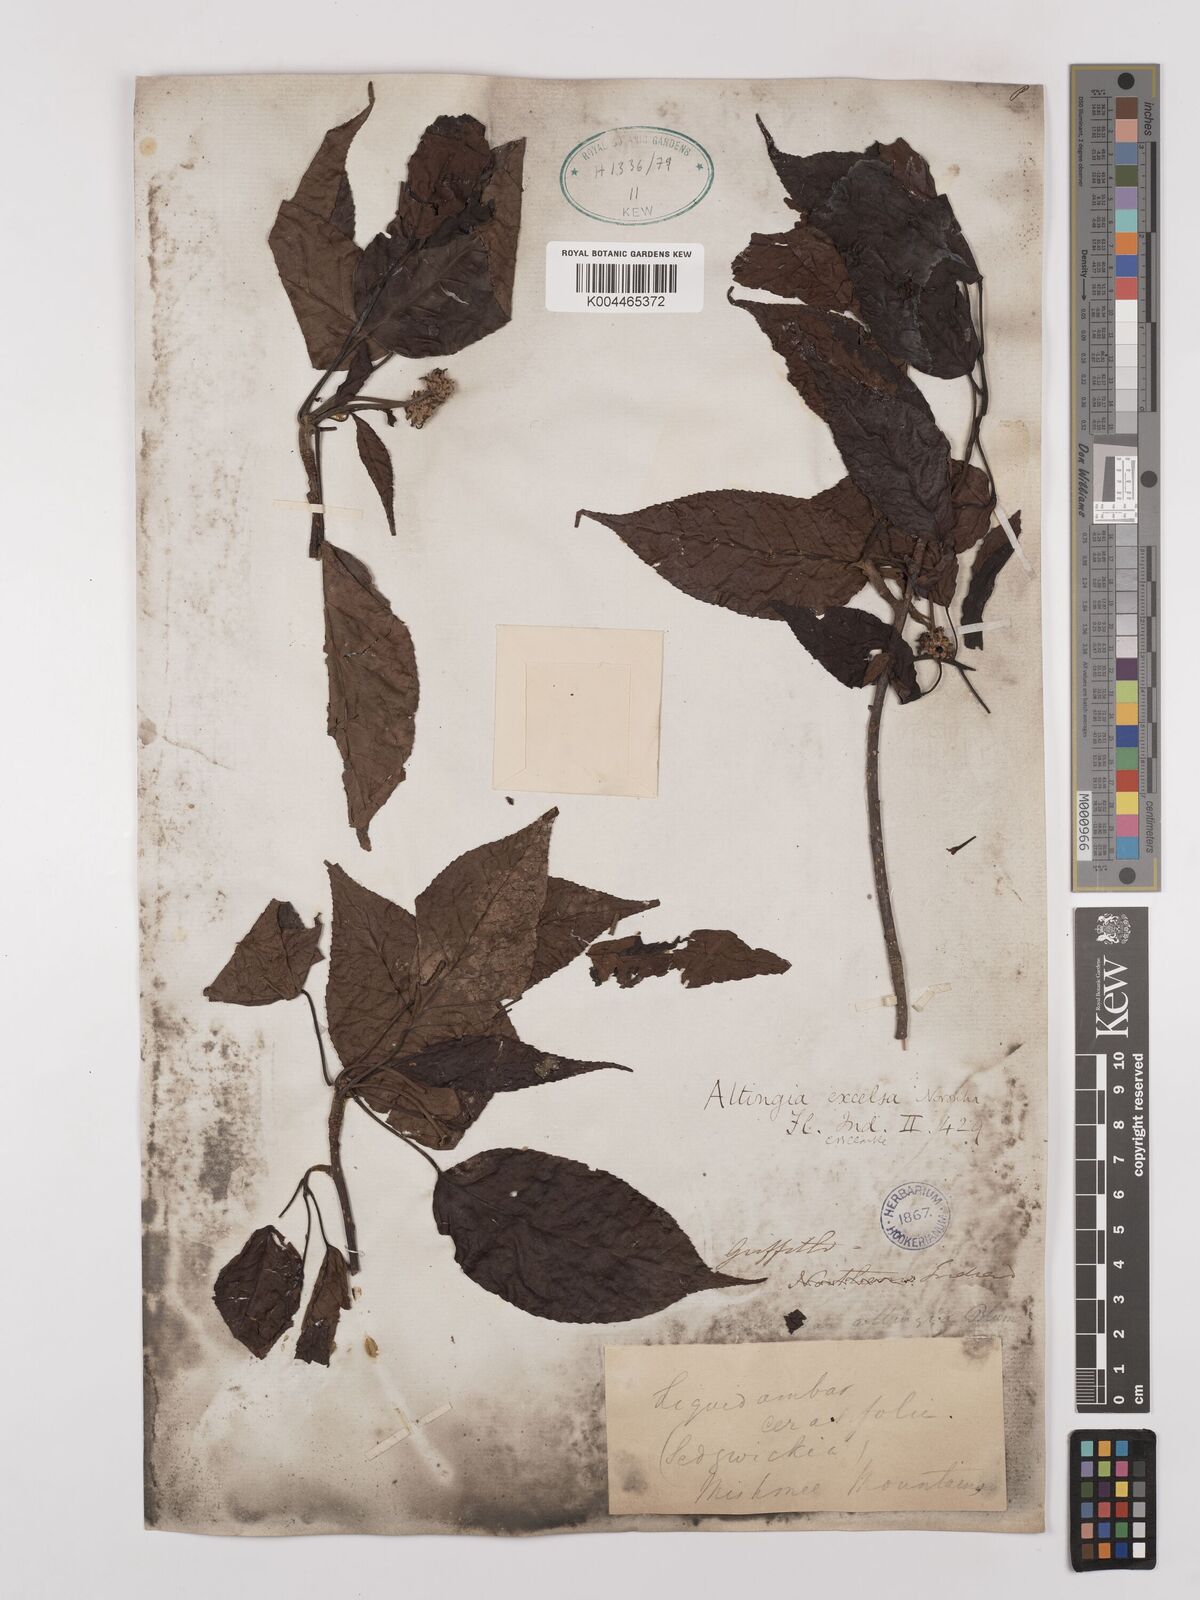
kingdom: Plantae
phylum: Tracheophyta
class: Magnoliopsida
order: Saxifragales
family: Altingiaceae
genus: Liquidambar
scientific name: Liquidambar excelsa
